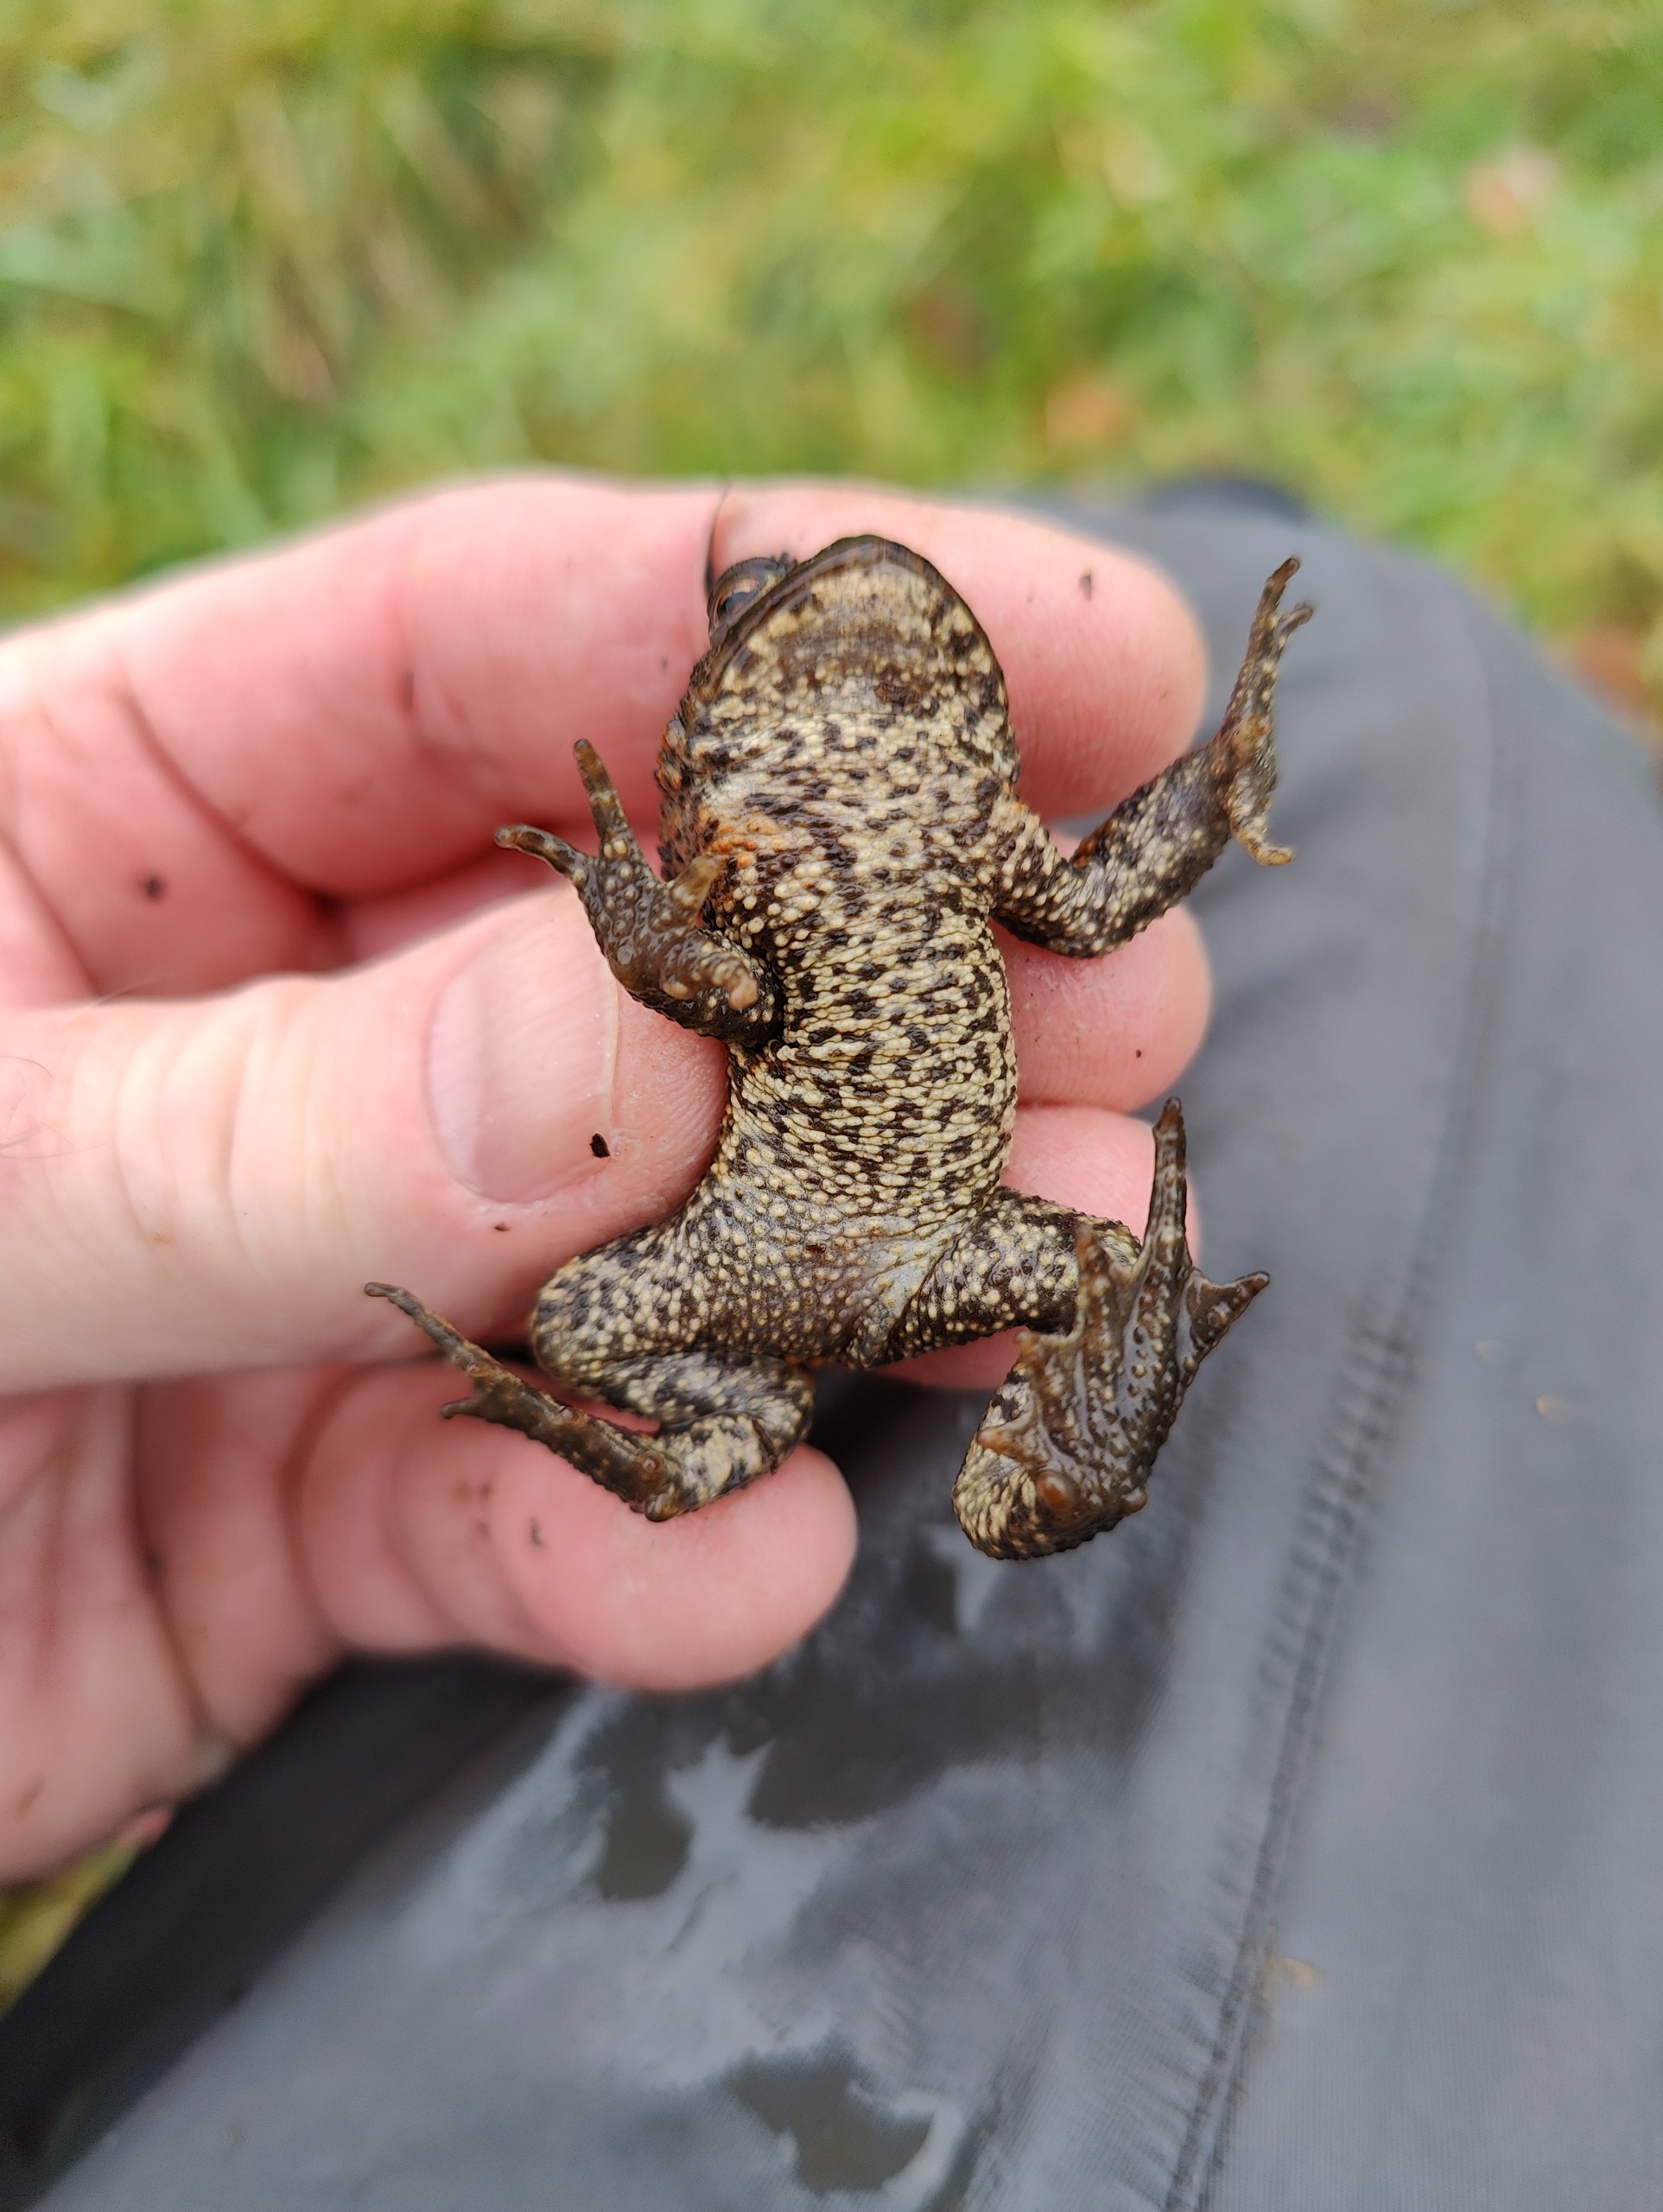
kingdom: Animalia
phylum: Chordata
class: Amphibia
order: Anura
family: Bufonidae
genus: Bufo
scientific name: Bufo bufo
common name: Skrubtudse
